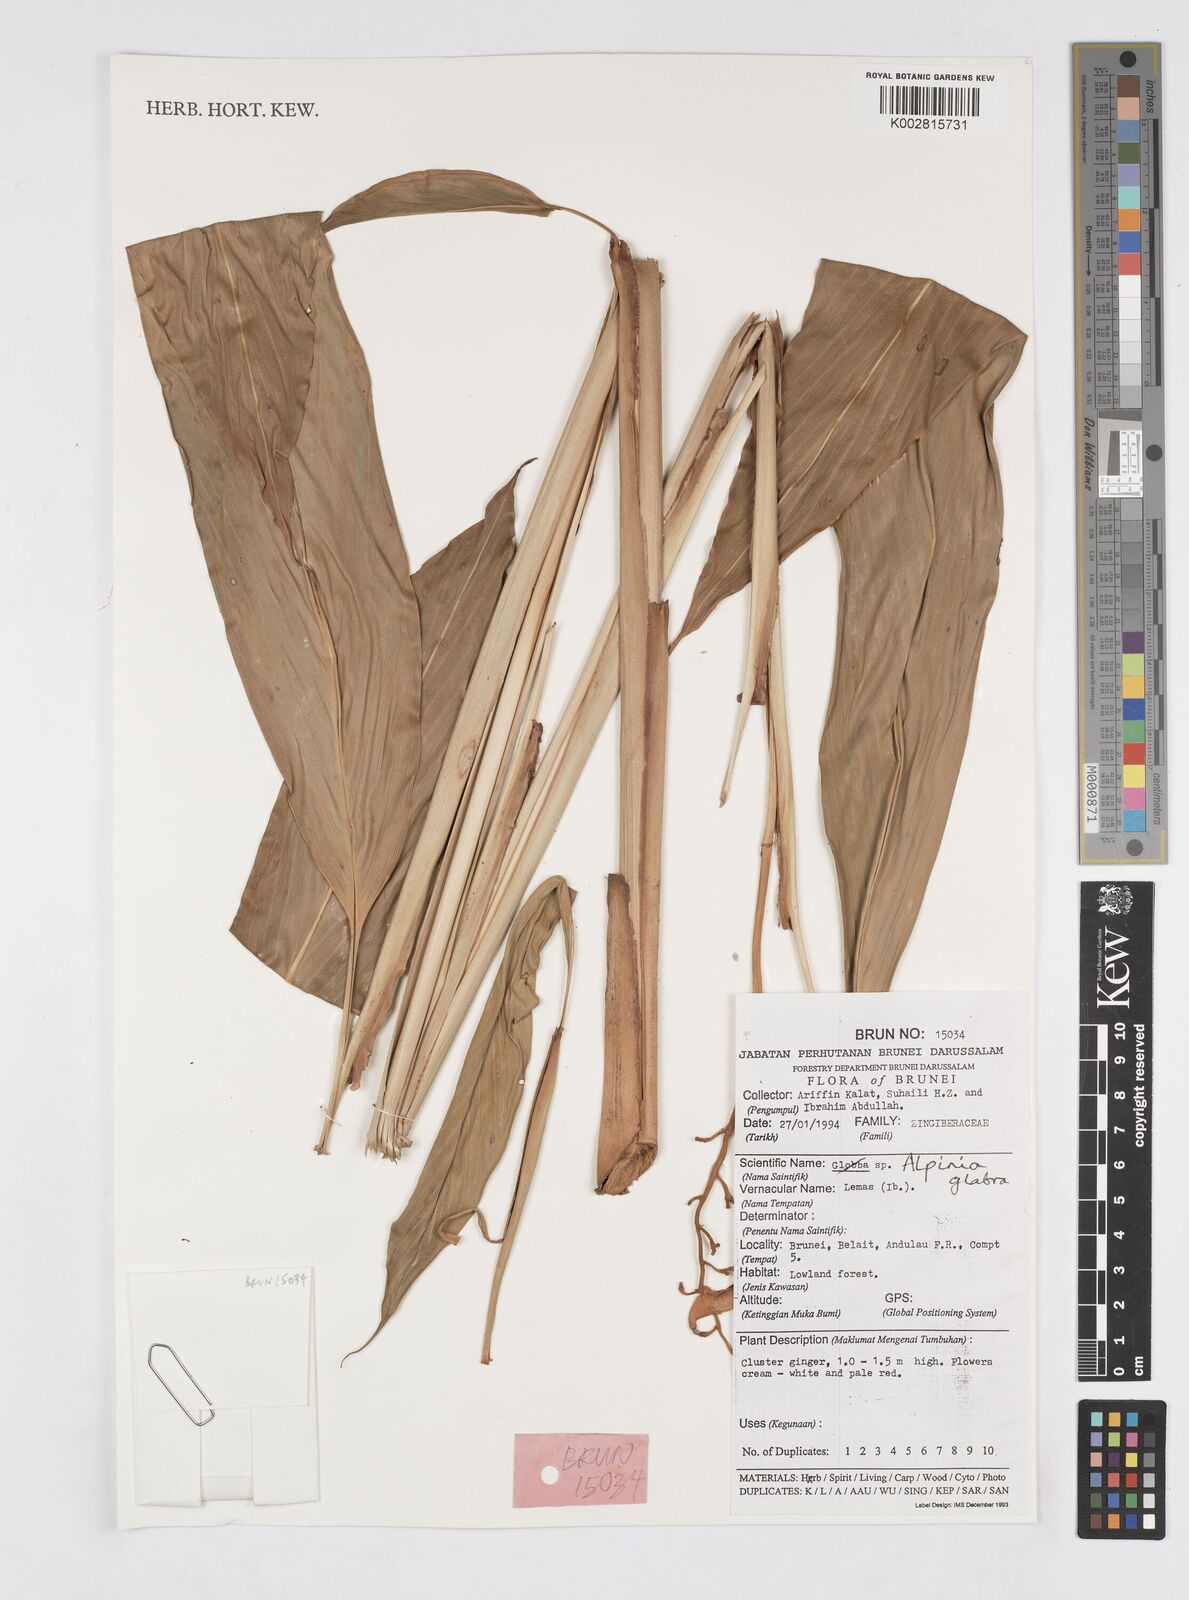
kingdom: Plantae
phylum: Tracheophyta
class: Liliopsida
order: Zingiberales
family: Zingiberaceae
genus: Alpinia
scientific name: Alpinia glabra
